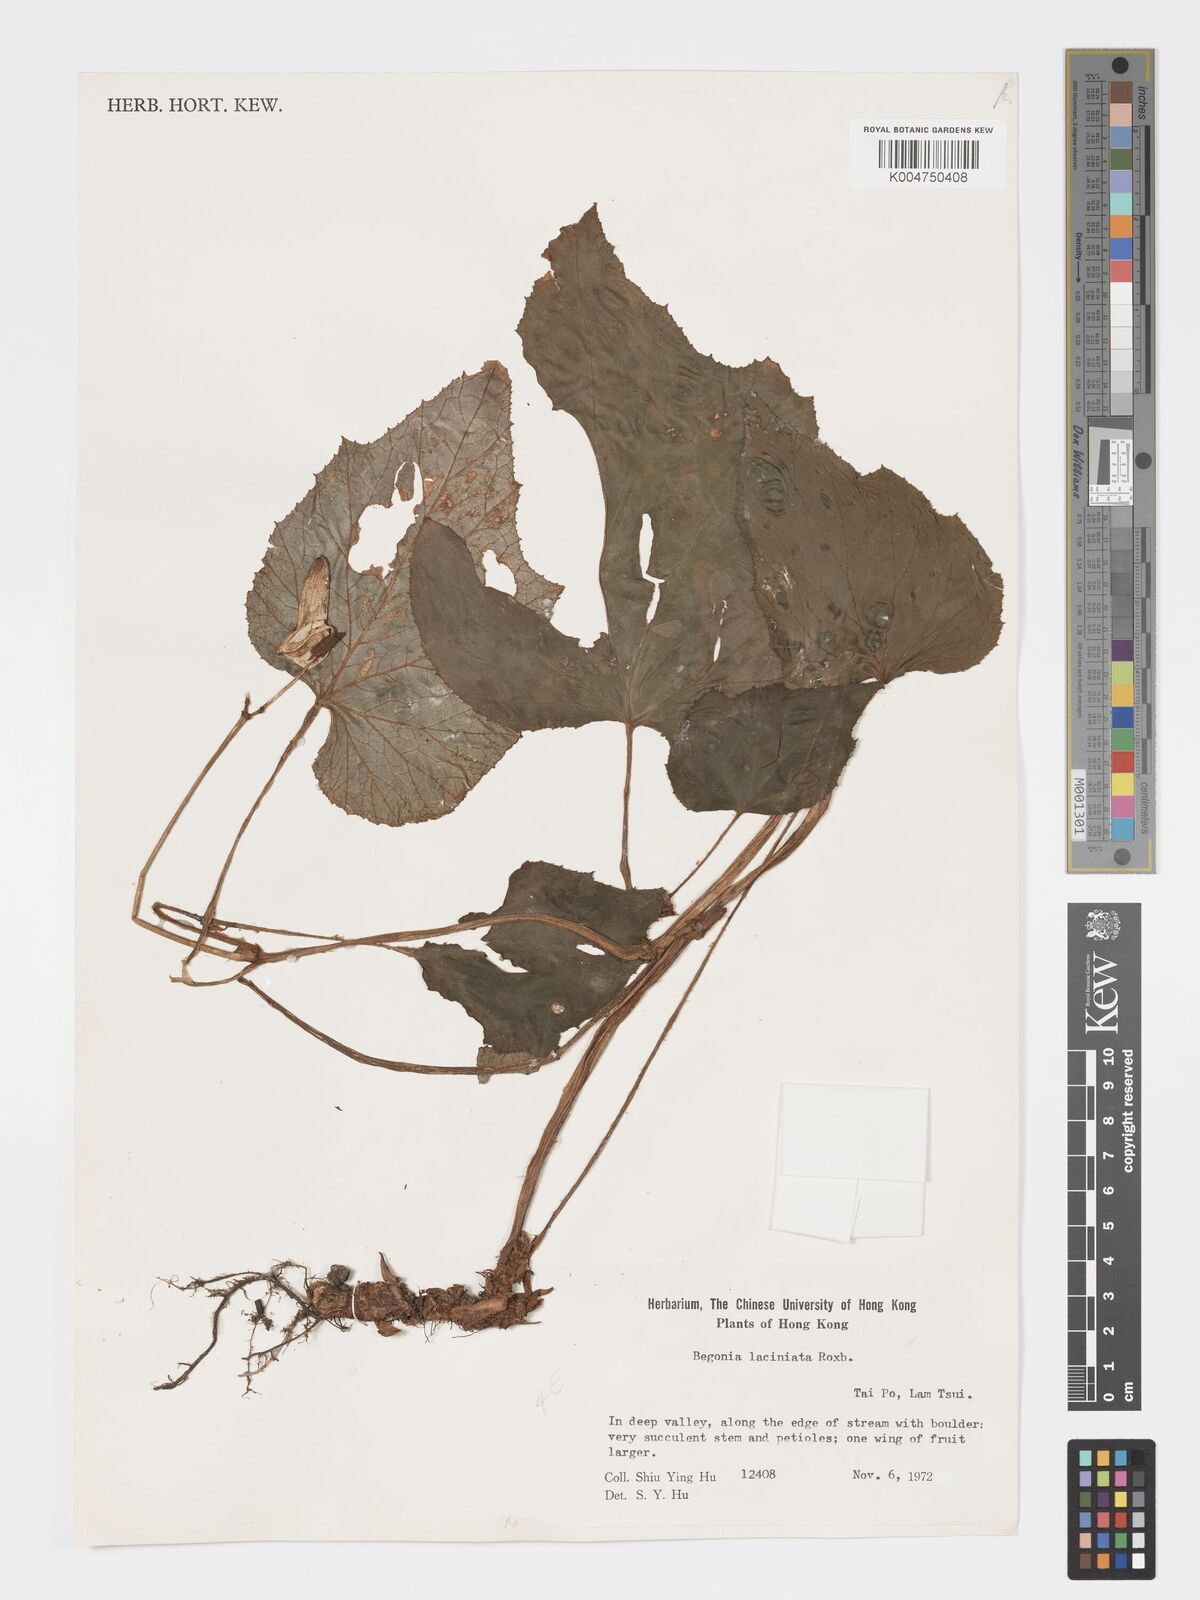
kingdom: Plantae
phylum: Tracheophyta
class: Magnoliopsida
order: Cucurbitales
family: Begoniaceae
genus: Begonia
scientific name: Begonia
